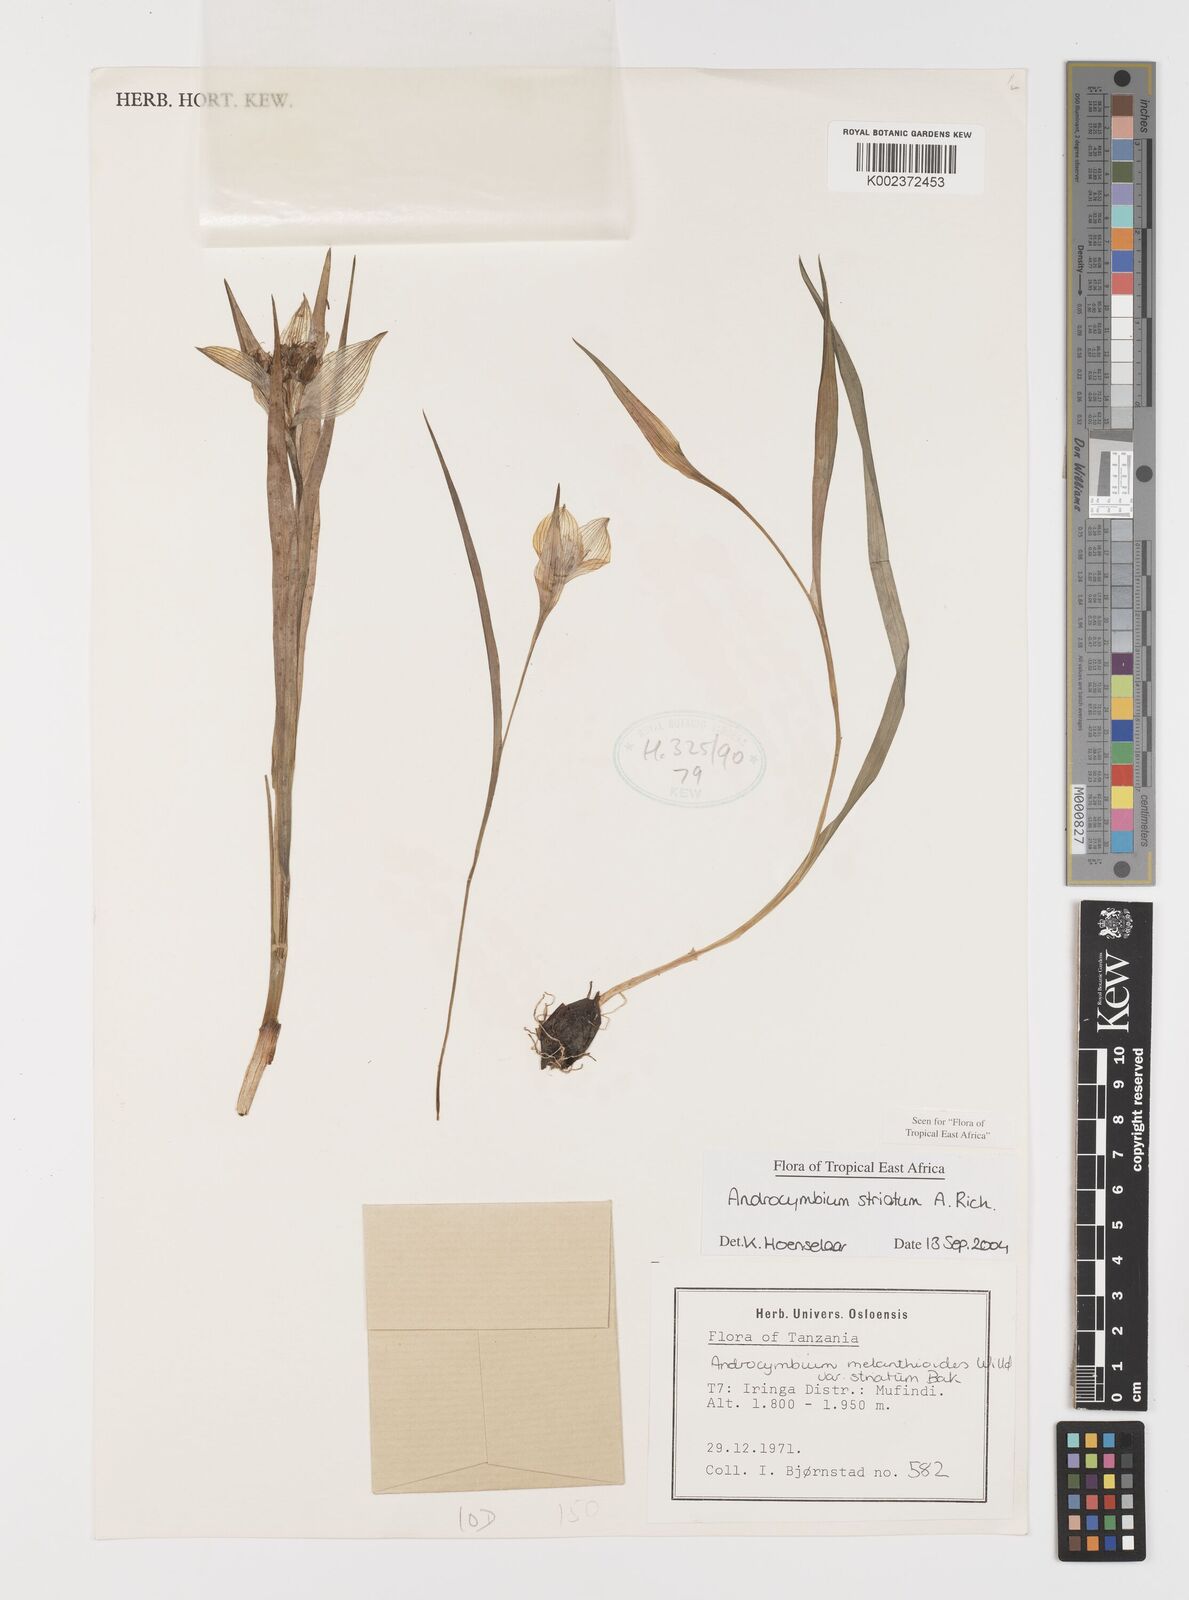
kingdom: Plantae
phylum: Tracheophyta
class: Liliopsida
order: Liliales
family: Colchicaceae
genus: Colchicum
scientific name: Colchicum striatum
